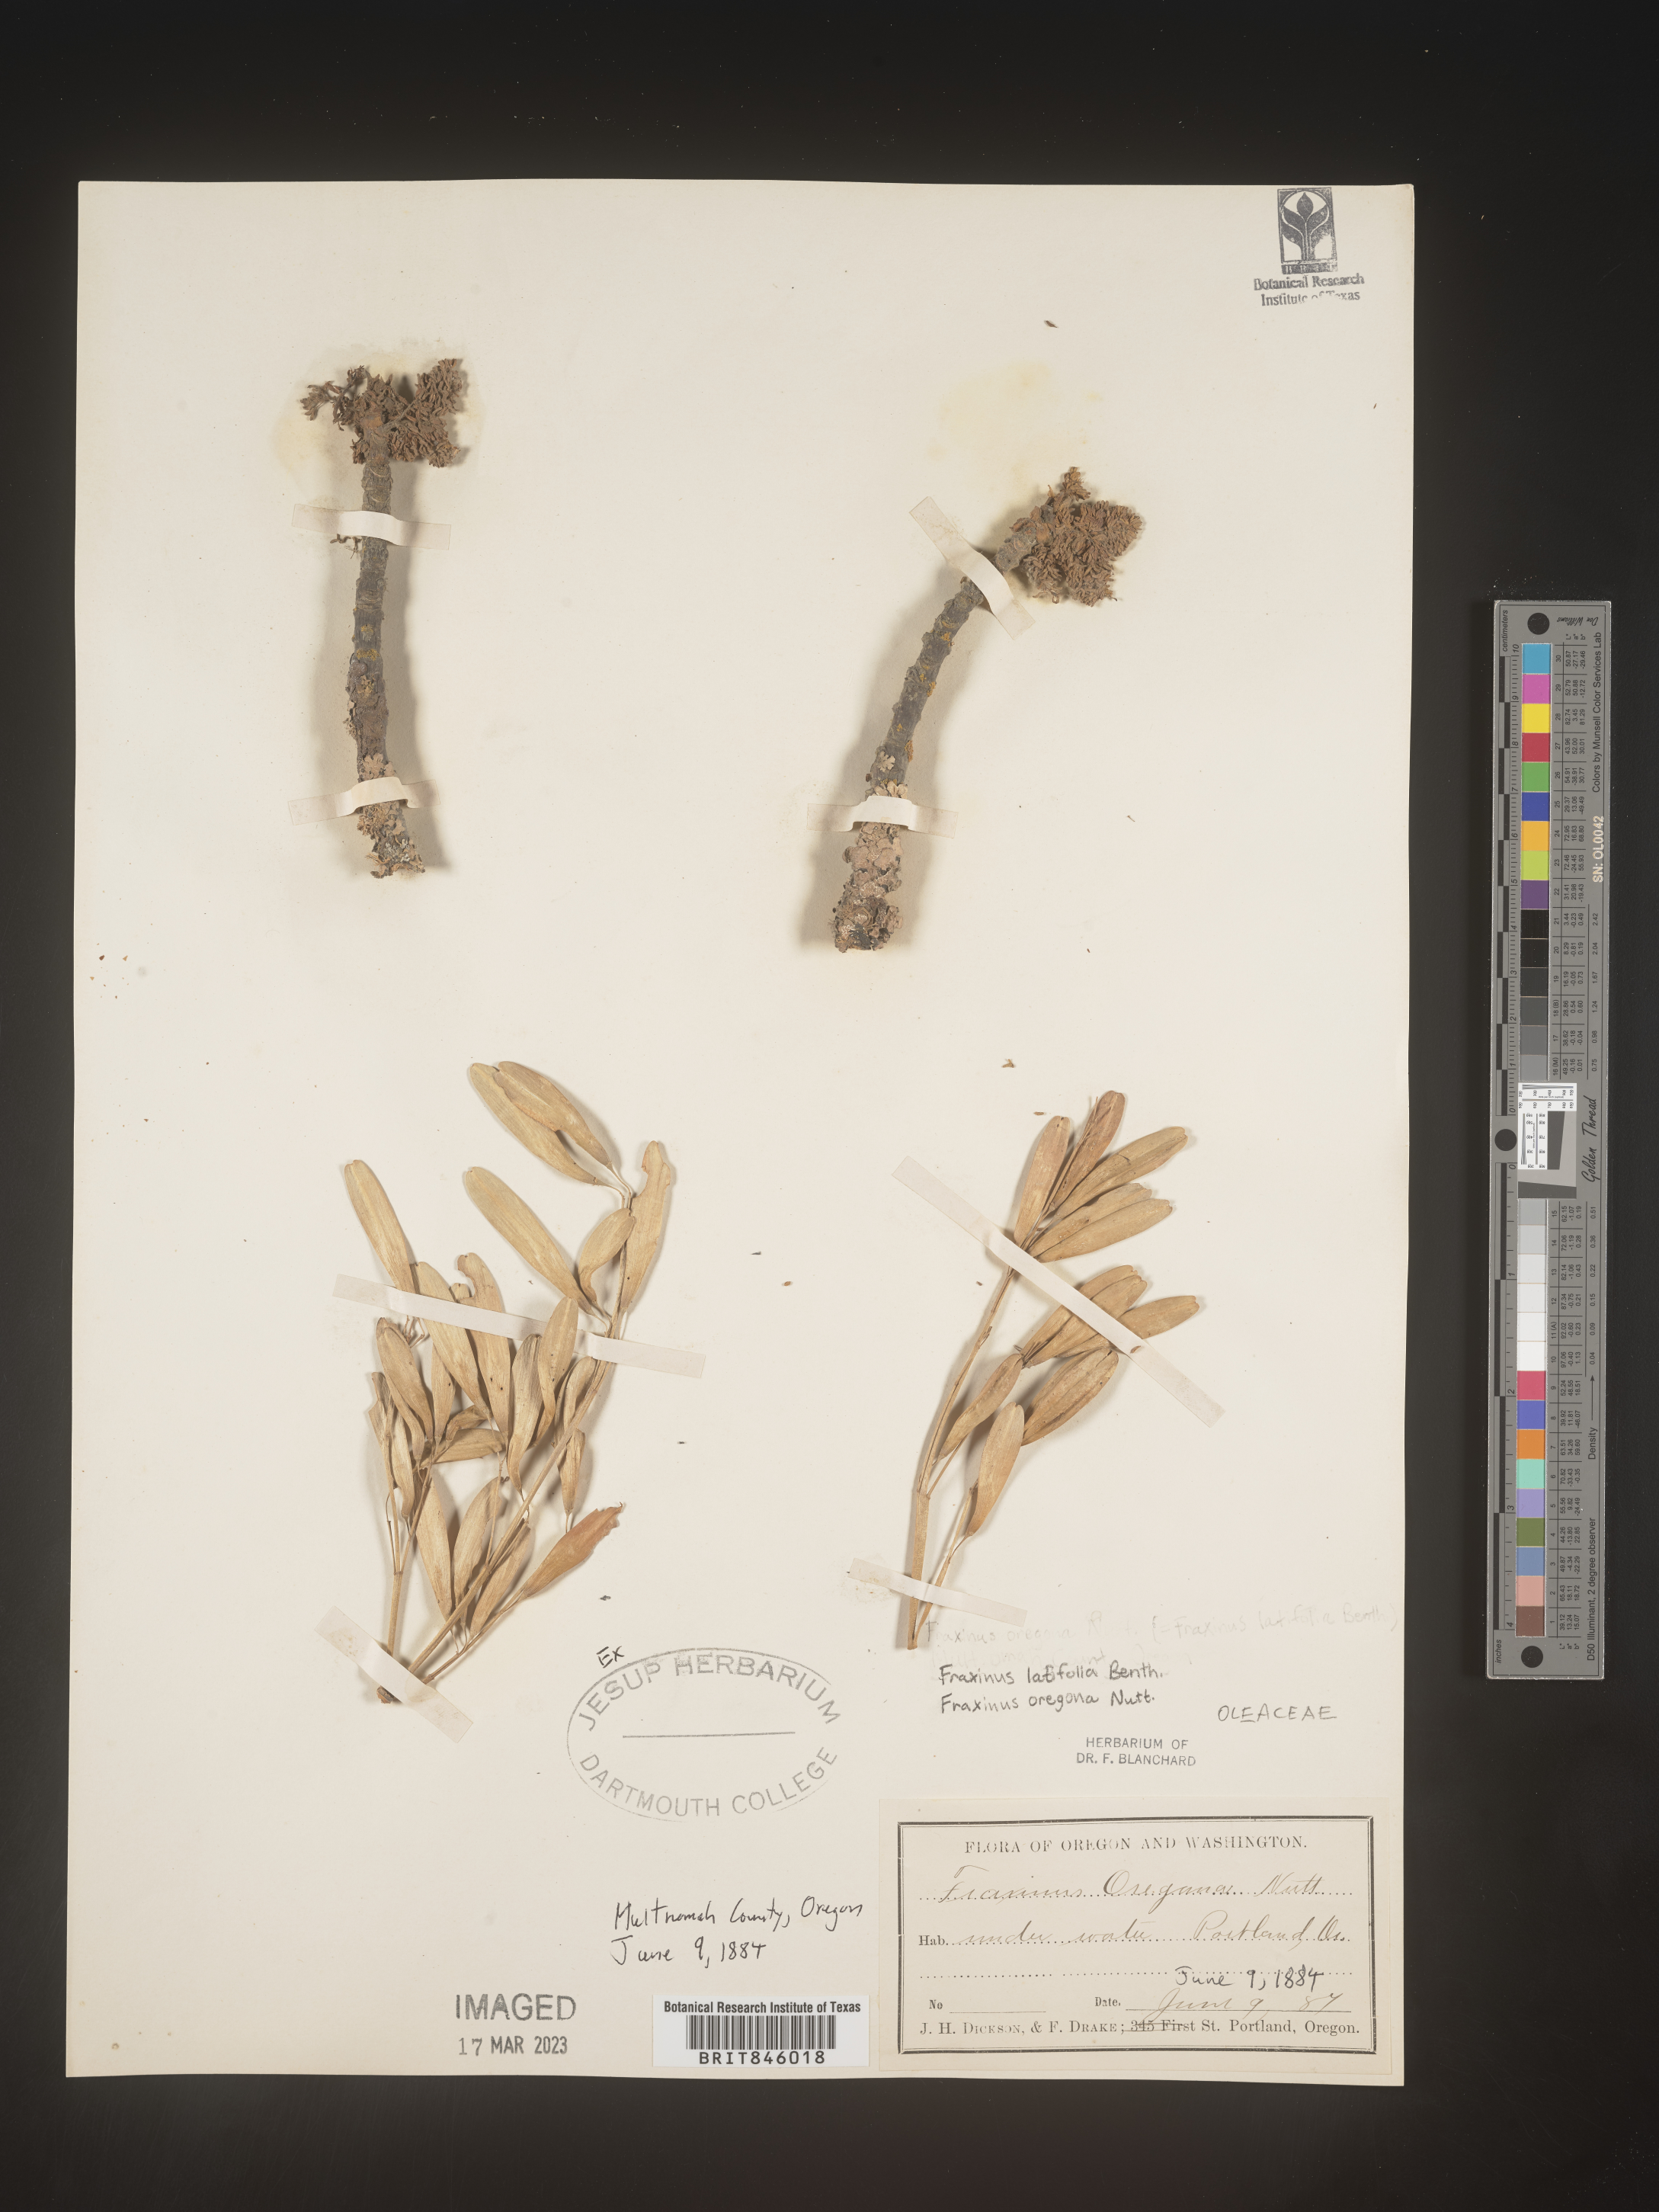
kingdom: Plantae
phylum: Tracheophyta
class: Magnoliopsida
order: Lamiales
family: Oleaceae
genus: Fraxinus
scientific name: Fraxinus latifolia
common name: Oregon ash
